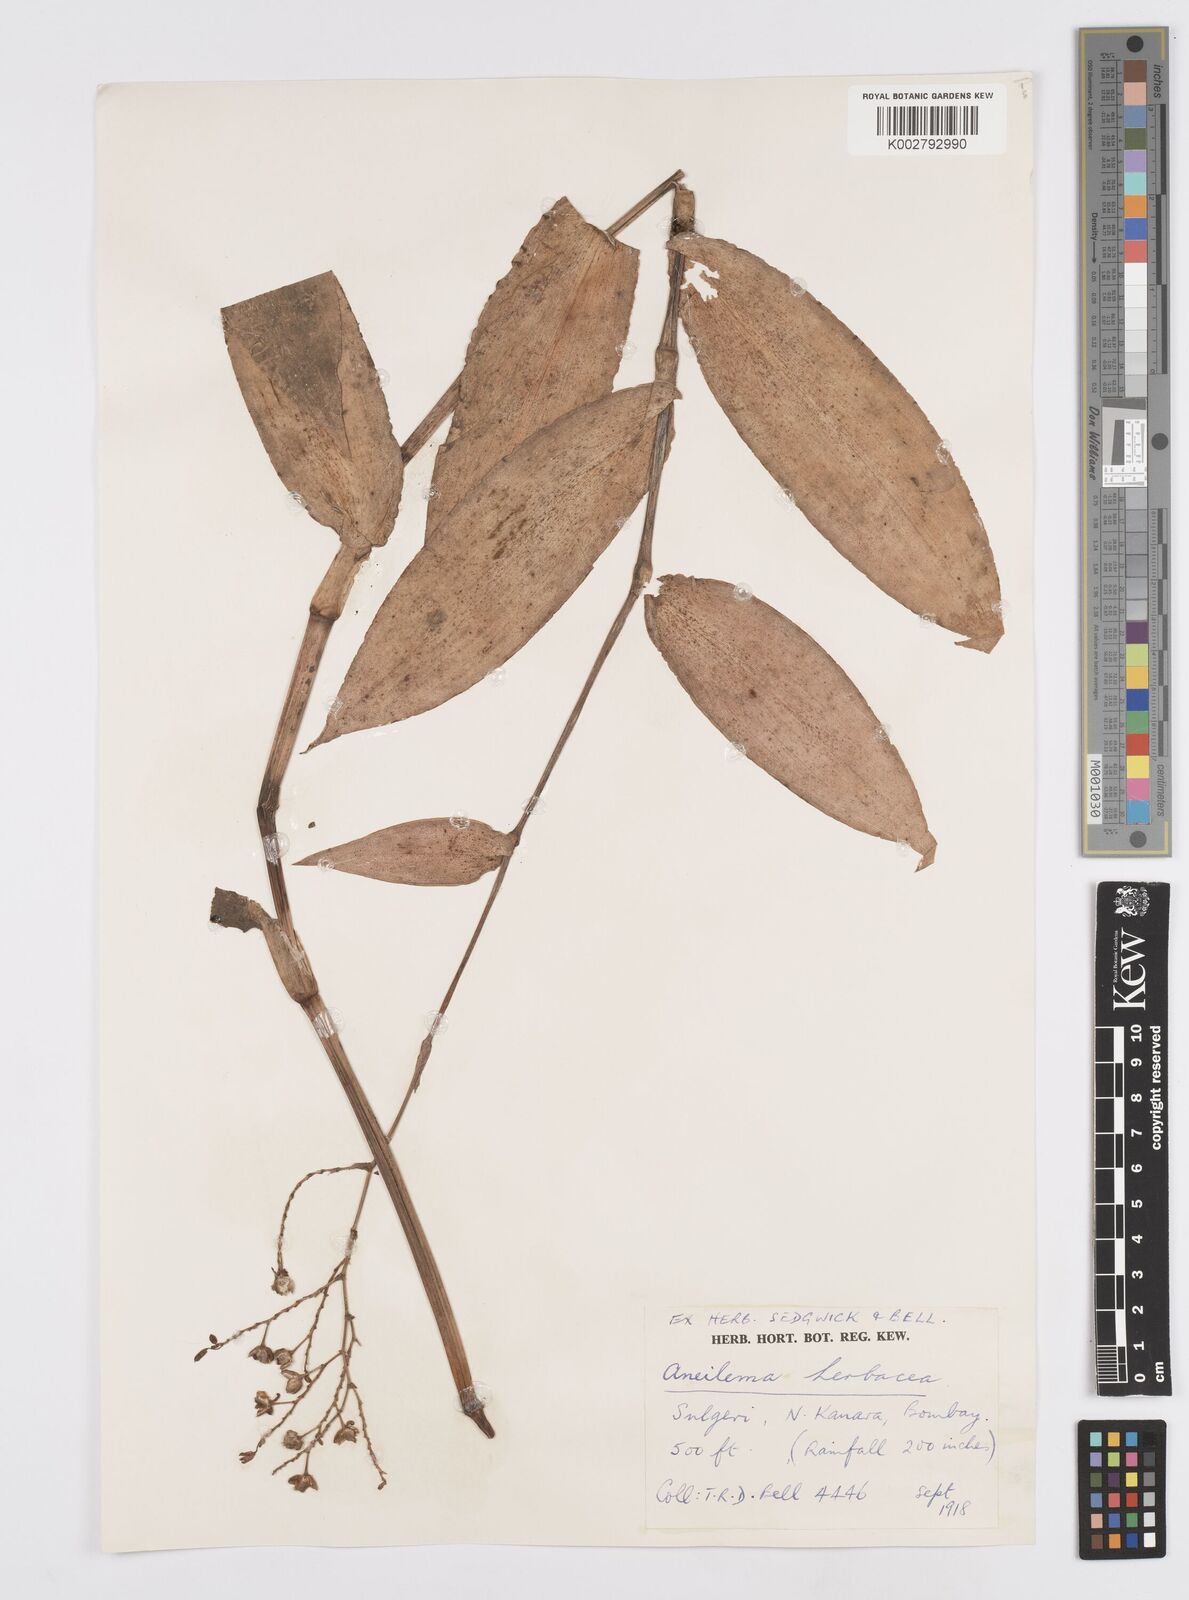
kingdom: Plantae
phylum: Tracheophyta
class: Liliopsida
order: Commelinales
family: Commelinaceae
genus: Murdannia
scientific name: Murdannia
